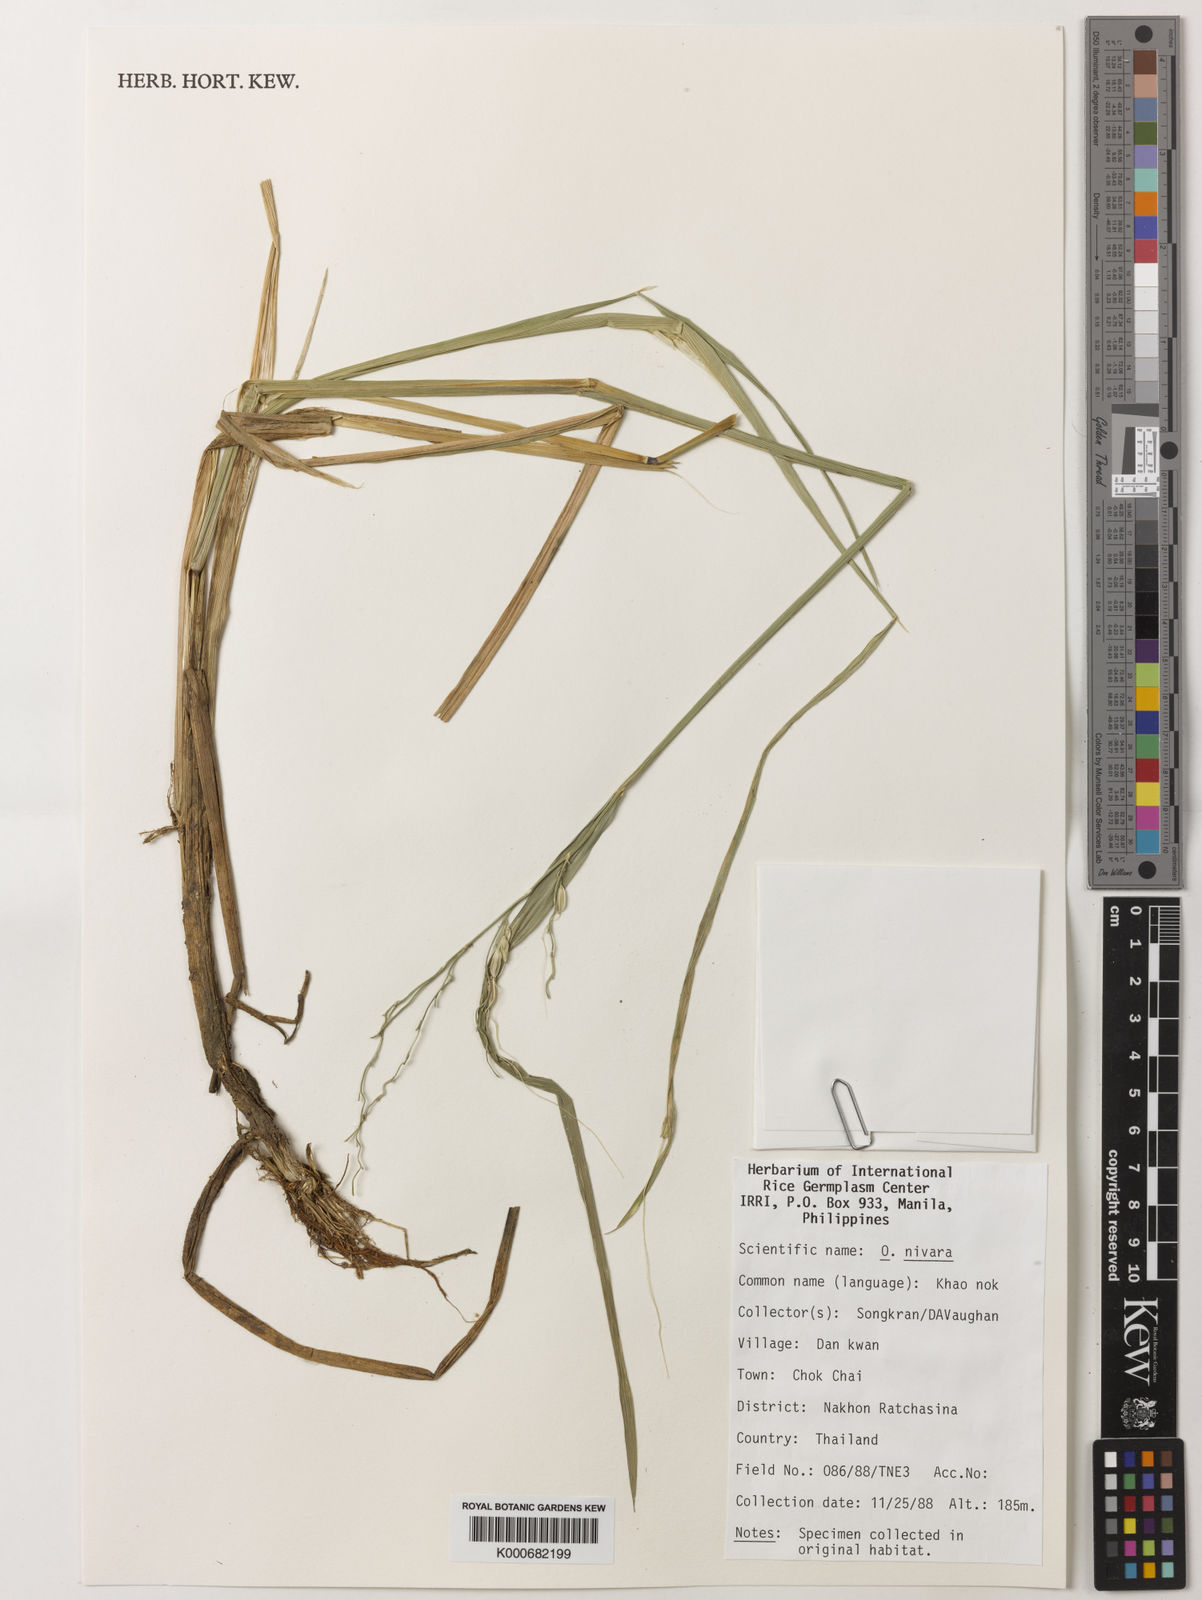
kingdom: Plantae
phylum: Tracheophyta
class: Liliopsida
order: Poales
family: Poaceae
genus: Oryza
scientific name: Oryza rufipogon
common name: Red rice
